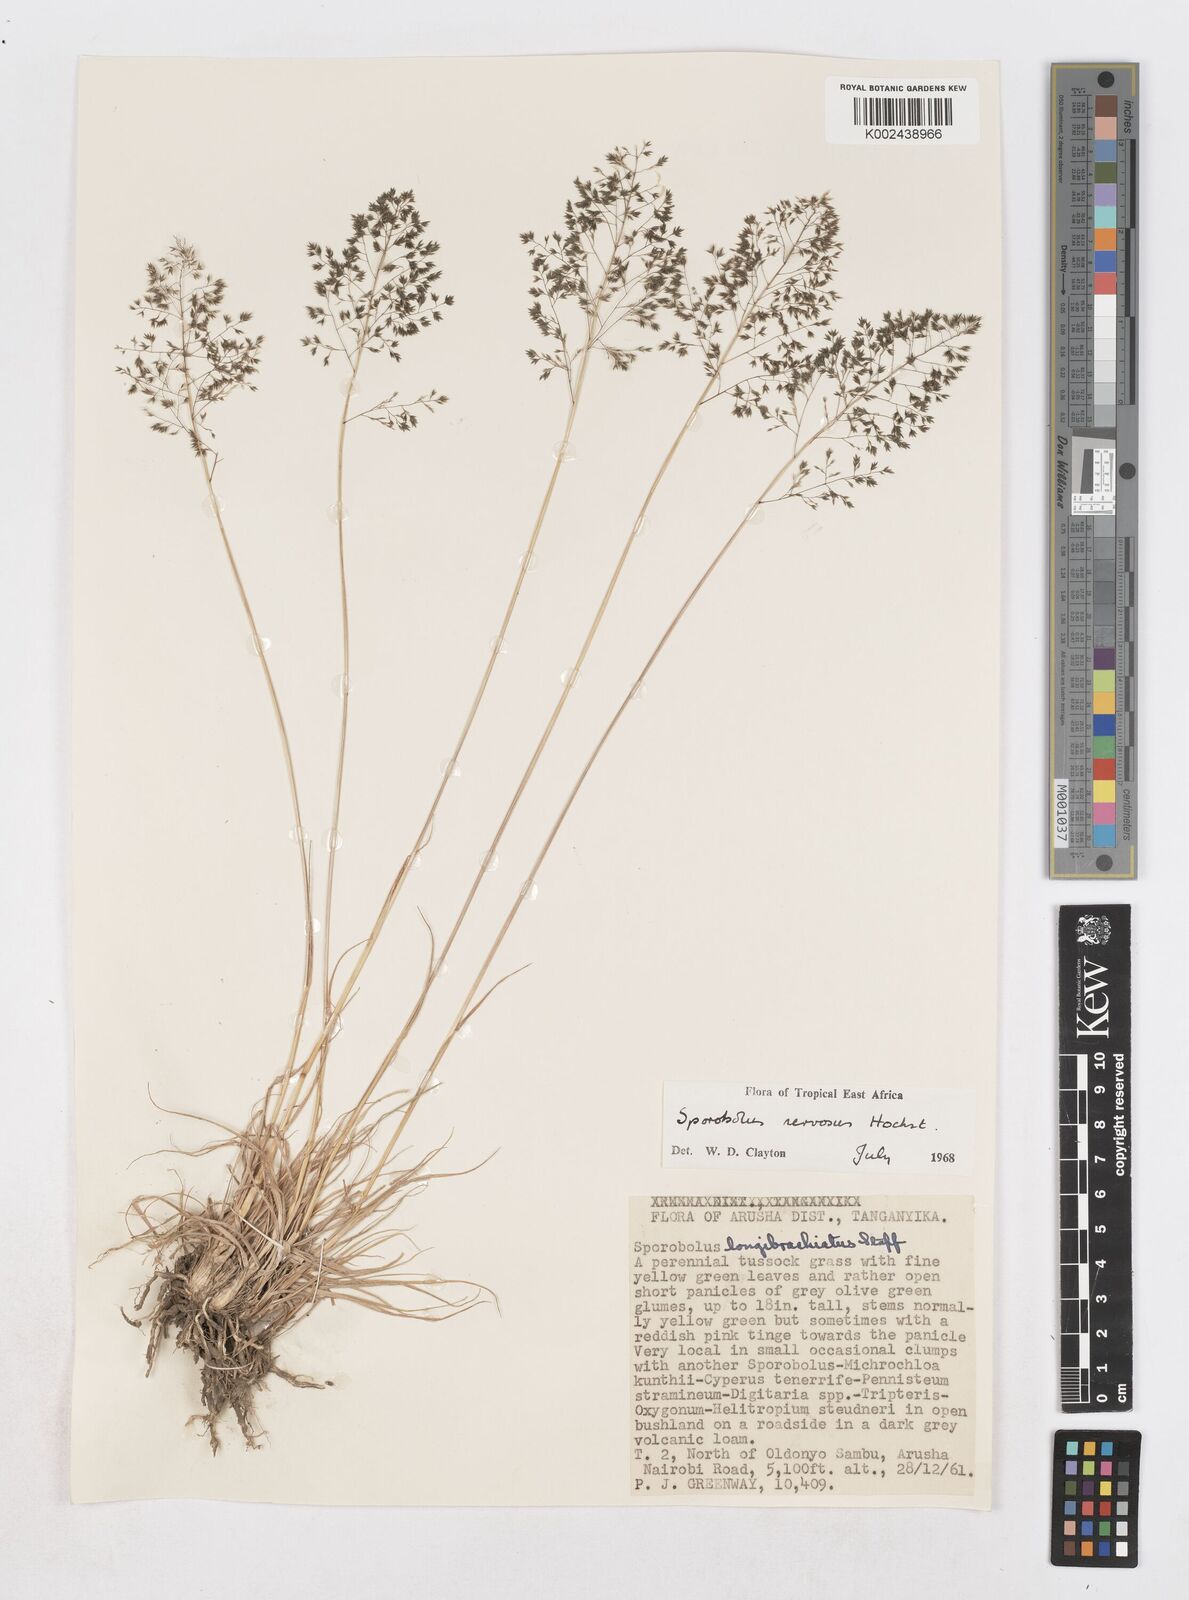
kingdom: Plantae
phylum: Tracheophyta
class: Liliopsida
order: Poales
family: Poaceae
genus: Sporobolus
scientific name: Sporobolus nervosus
